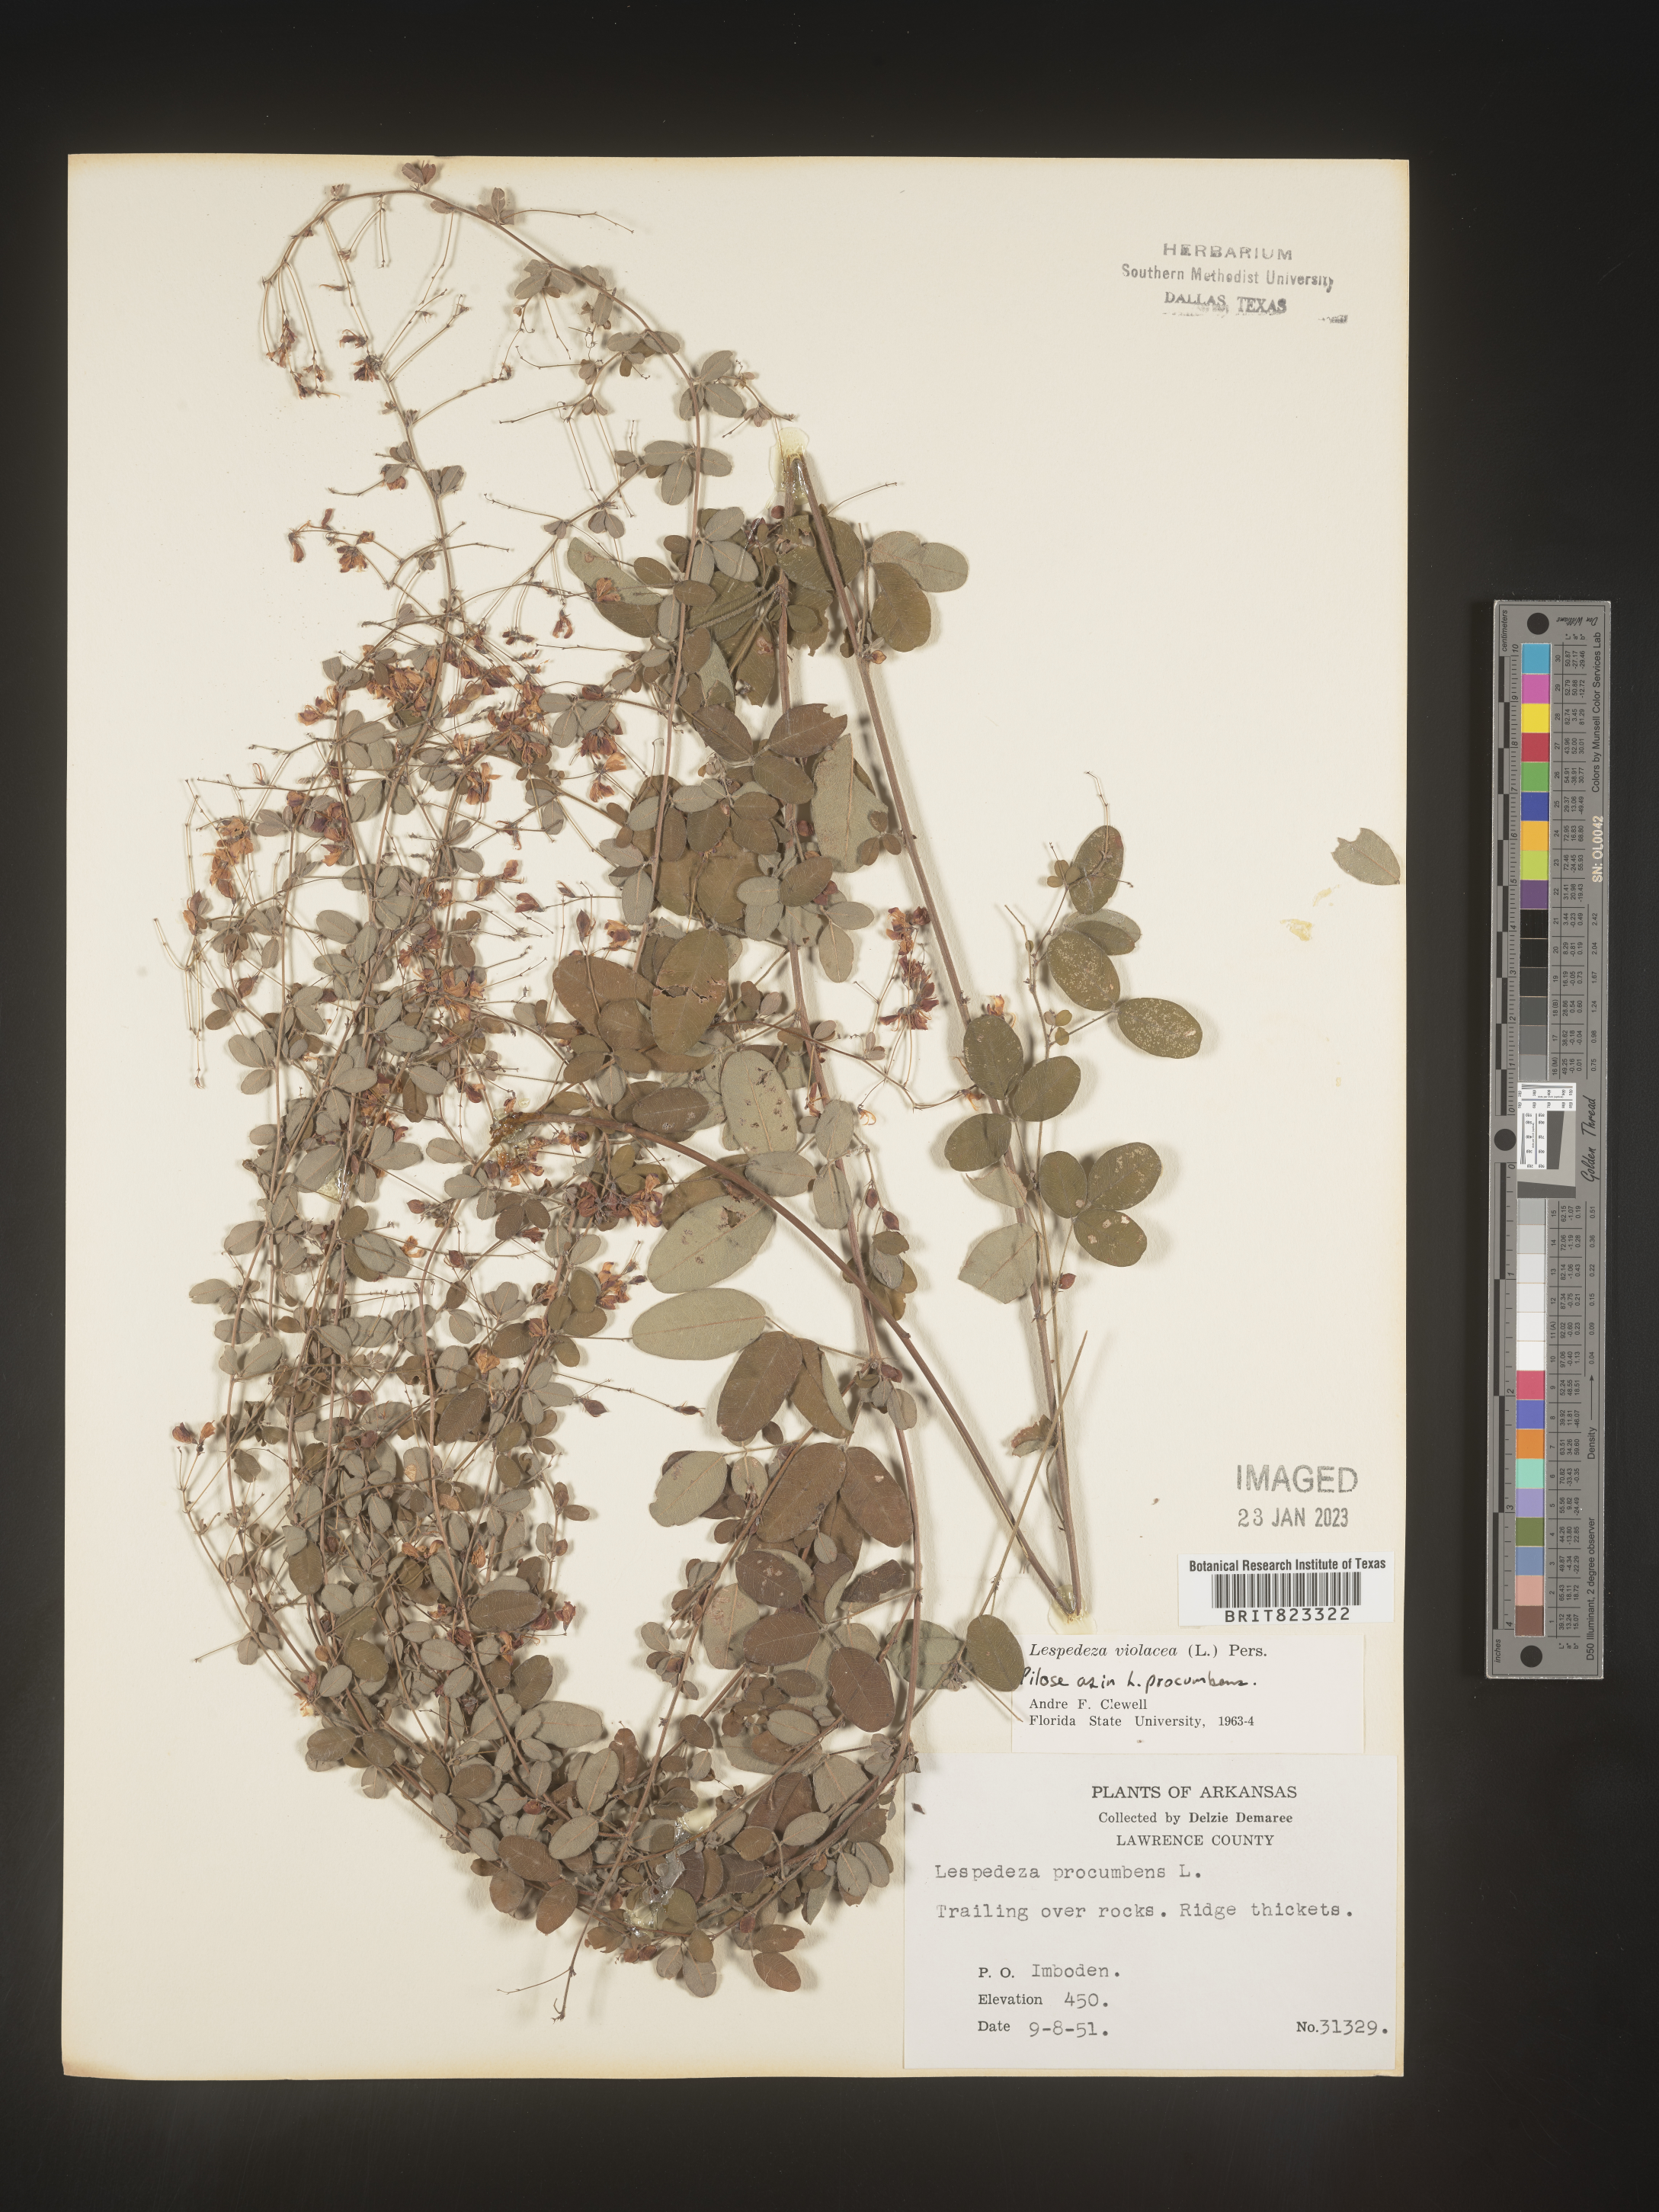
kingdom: Plantae
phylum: Tracheophyta
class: Magnoliopsida
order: Fabales
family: Fabaceae
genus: Lespedeza
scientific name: Lespedeza violacea
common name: Wand bush-clover
